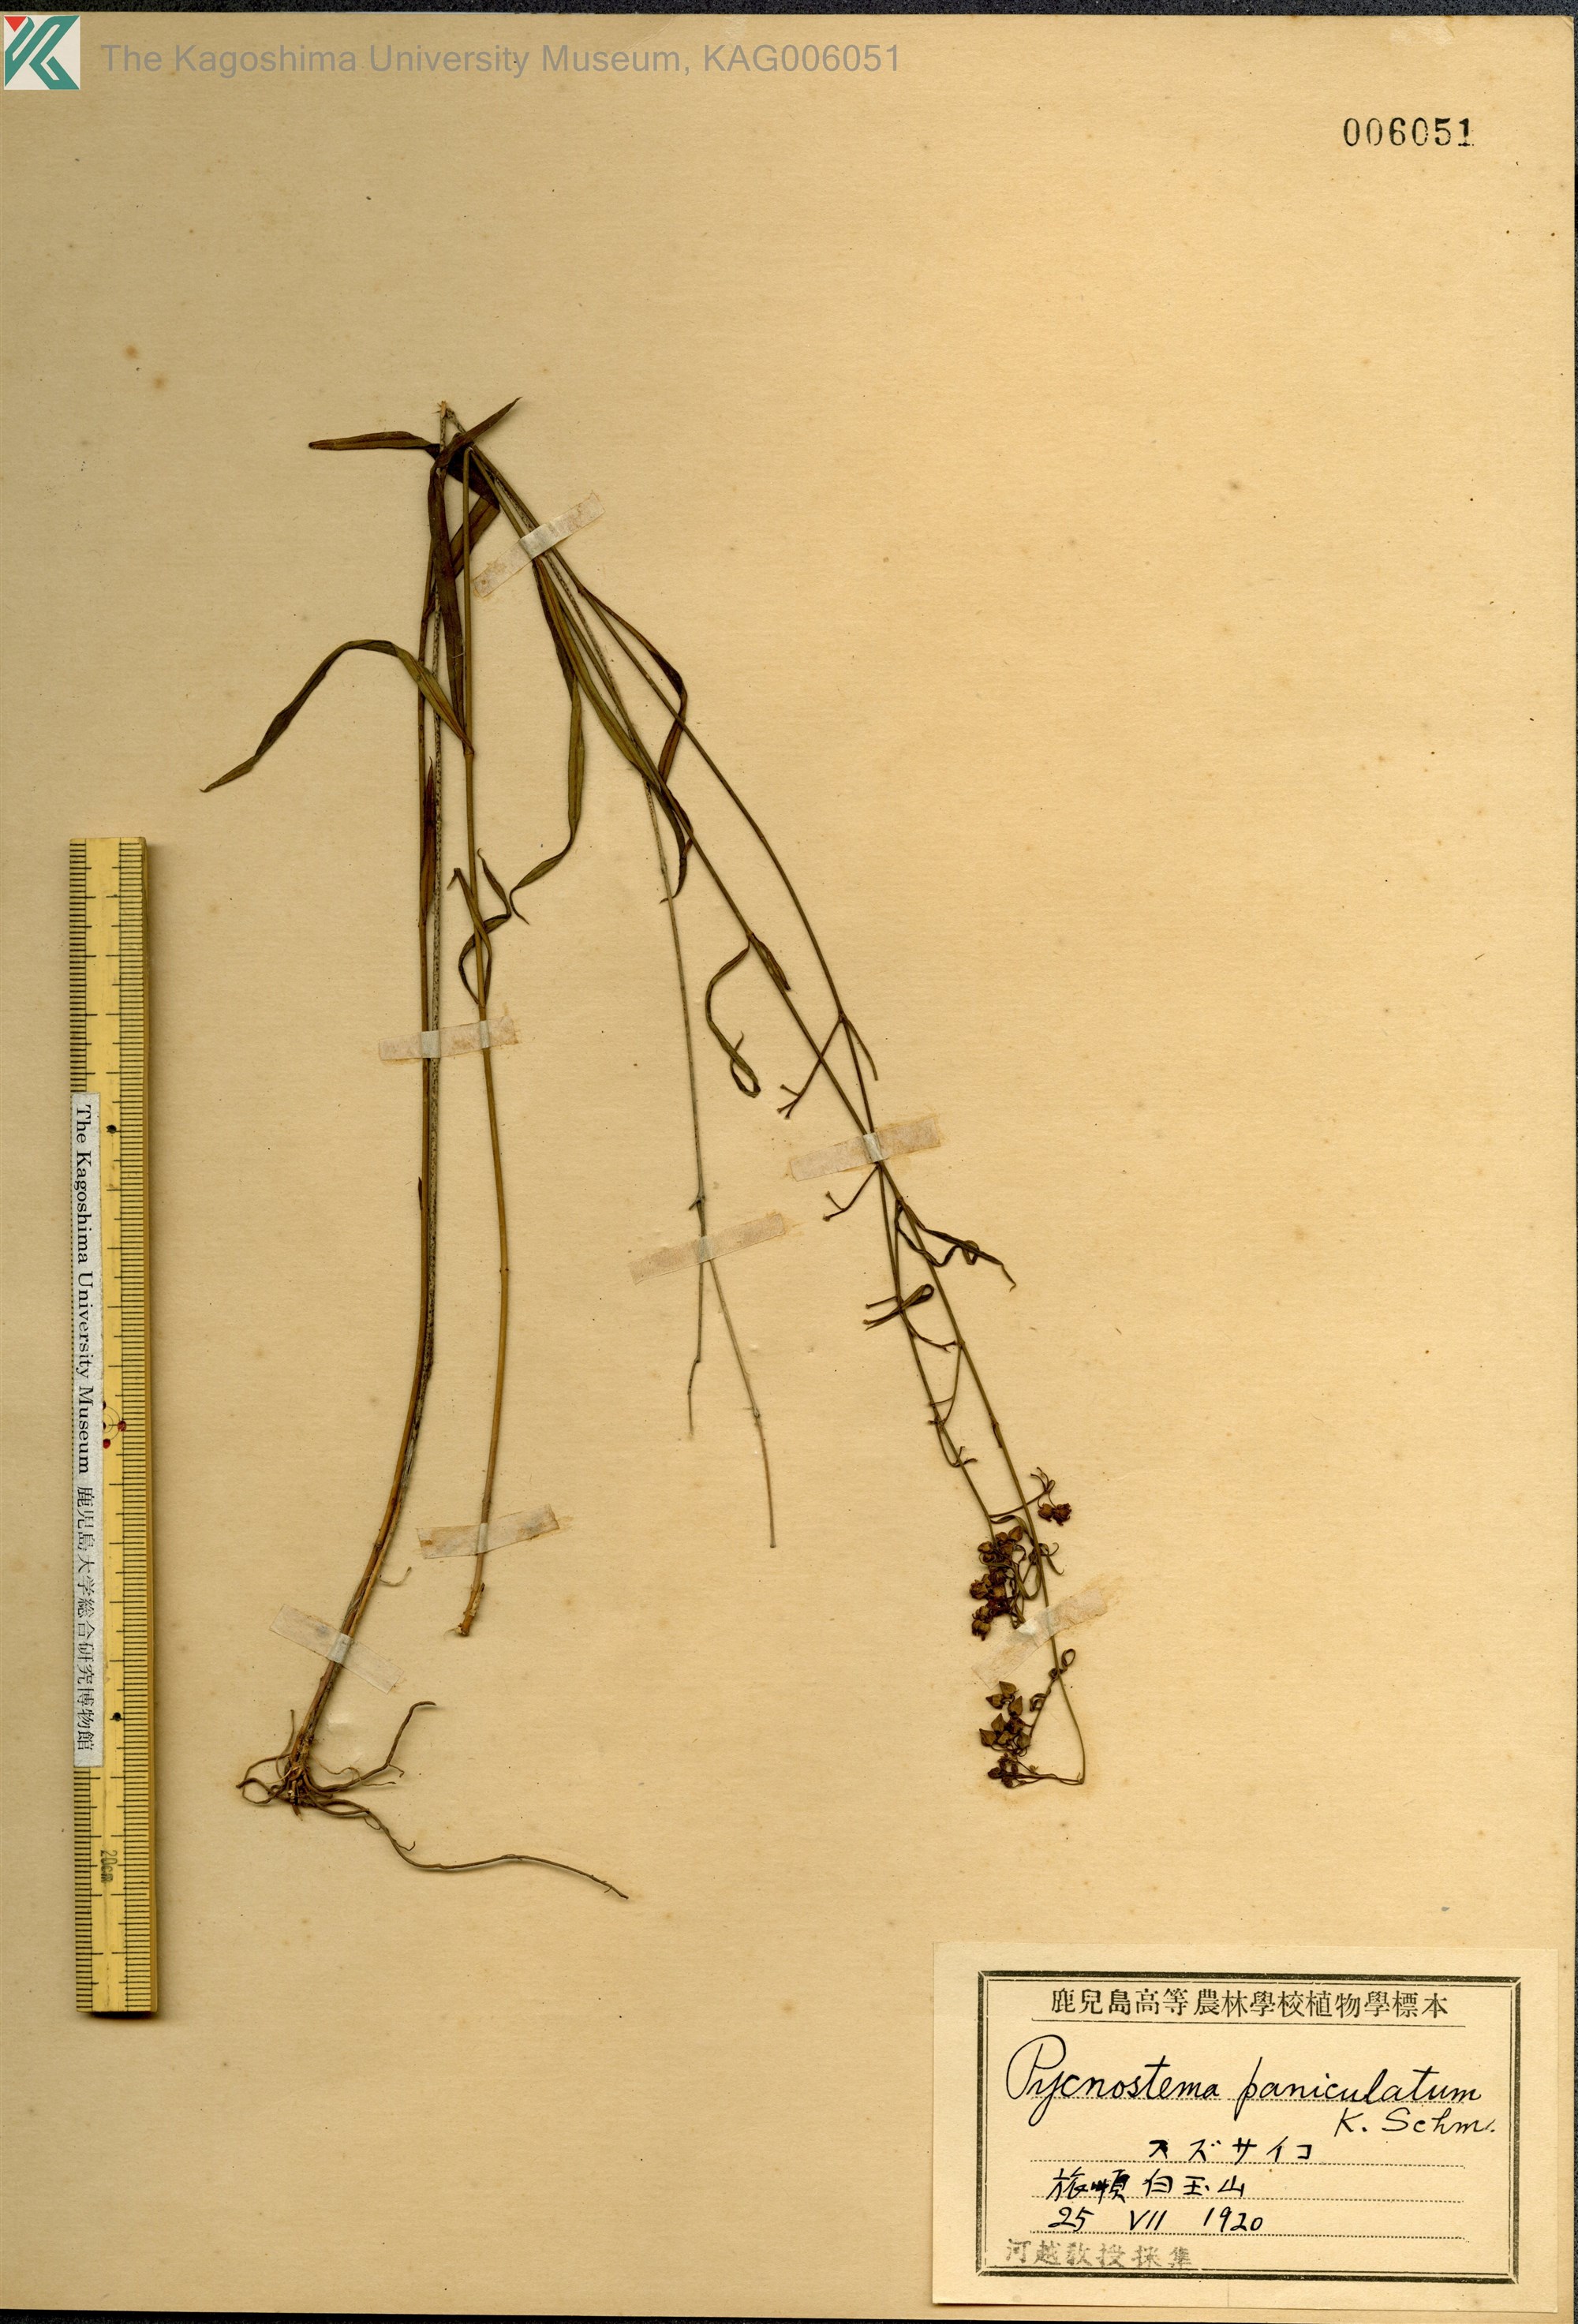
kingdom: Plantae
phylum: Tracheophyta
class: Magnoliopsida
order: Gentianales
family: Apocynaceae
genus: Vincetoxicum
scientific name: Vincetoxicum mukdenense
